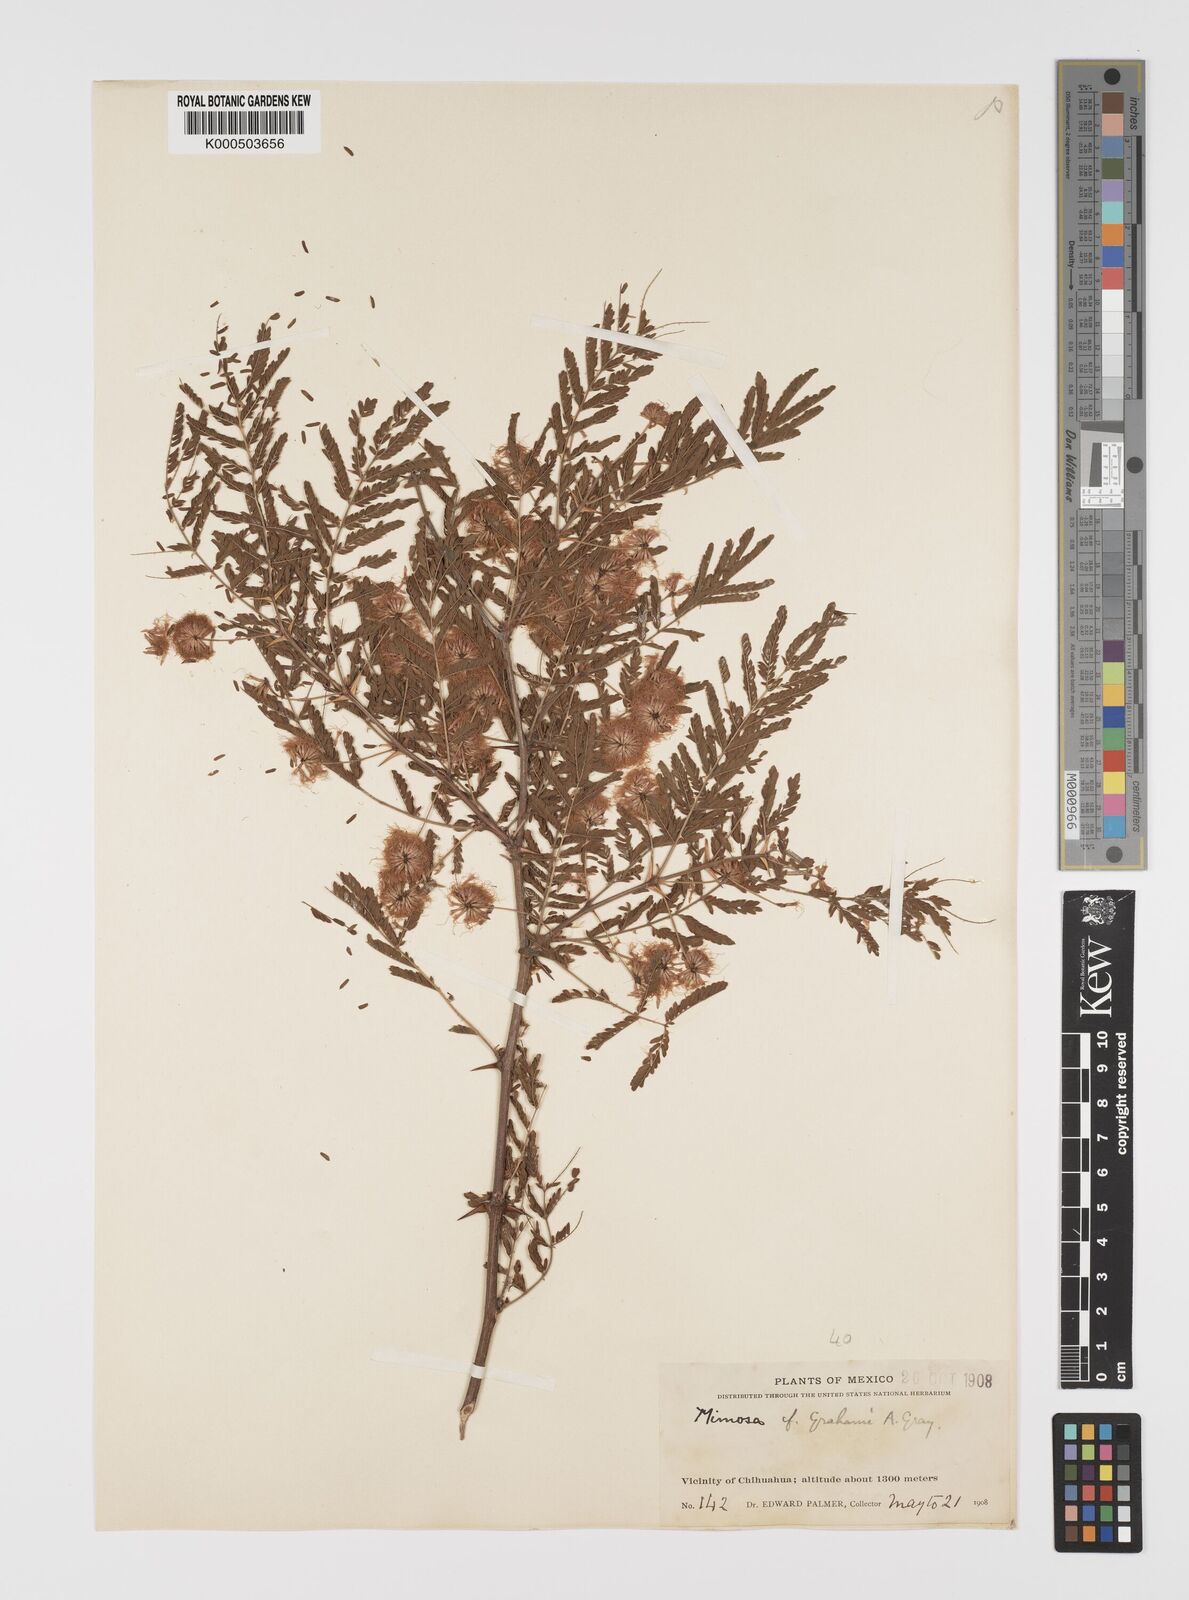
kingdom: Plantae
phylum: Tracheophyta
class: Magnoliopsida
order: Fabales
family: Fabaceae
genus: Mimosa
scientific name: Mimosa grahamii
